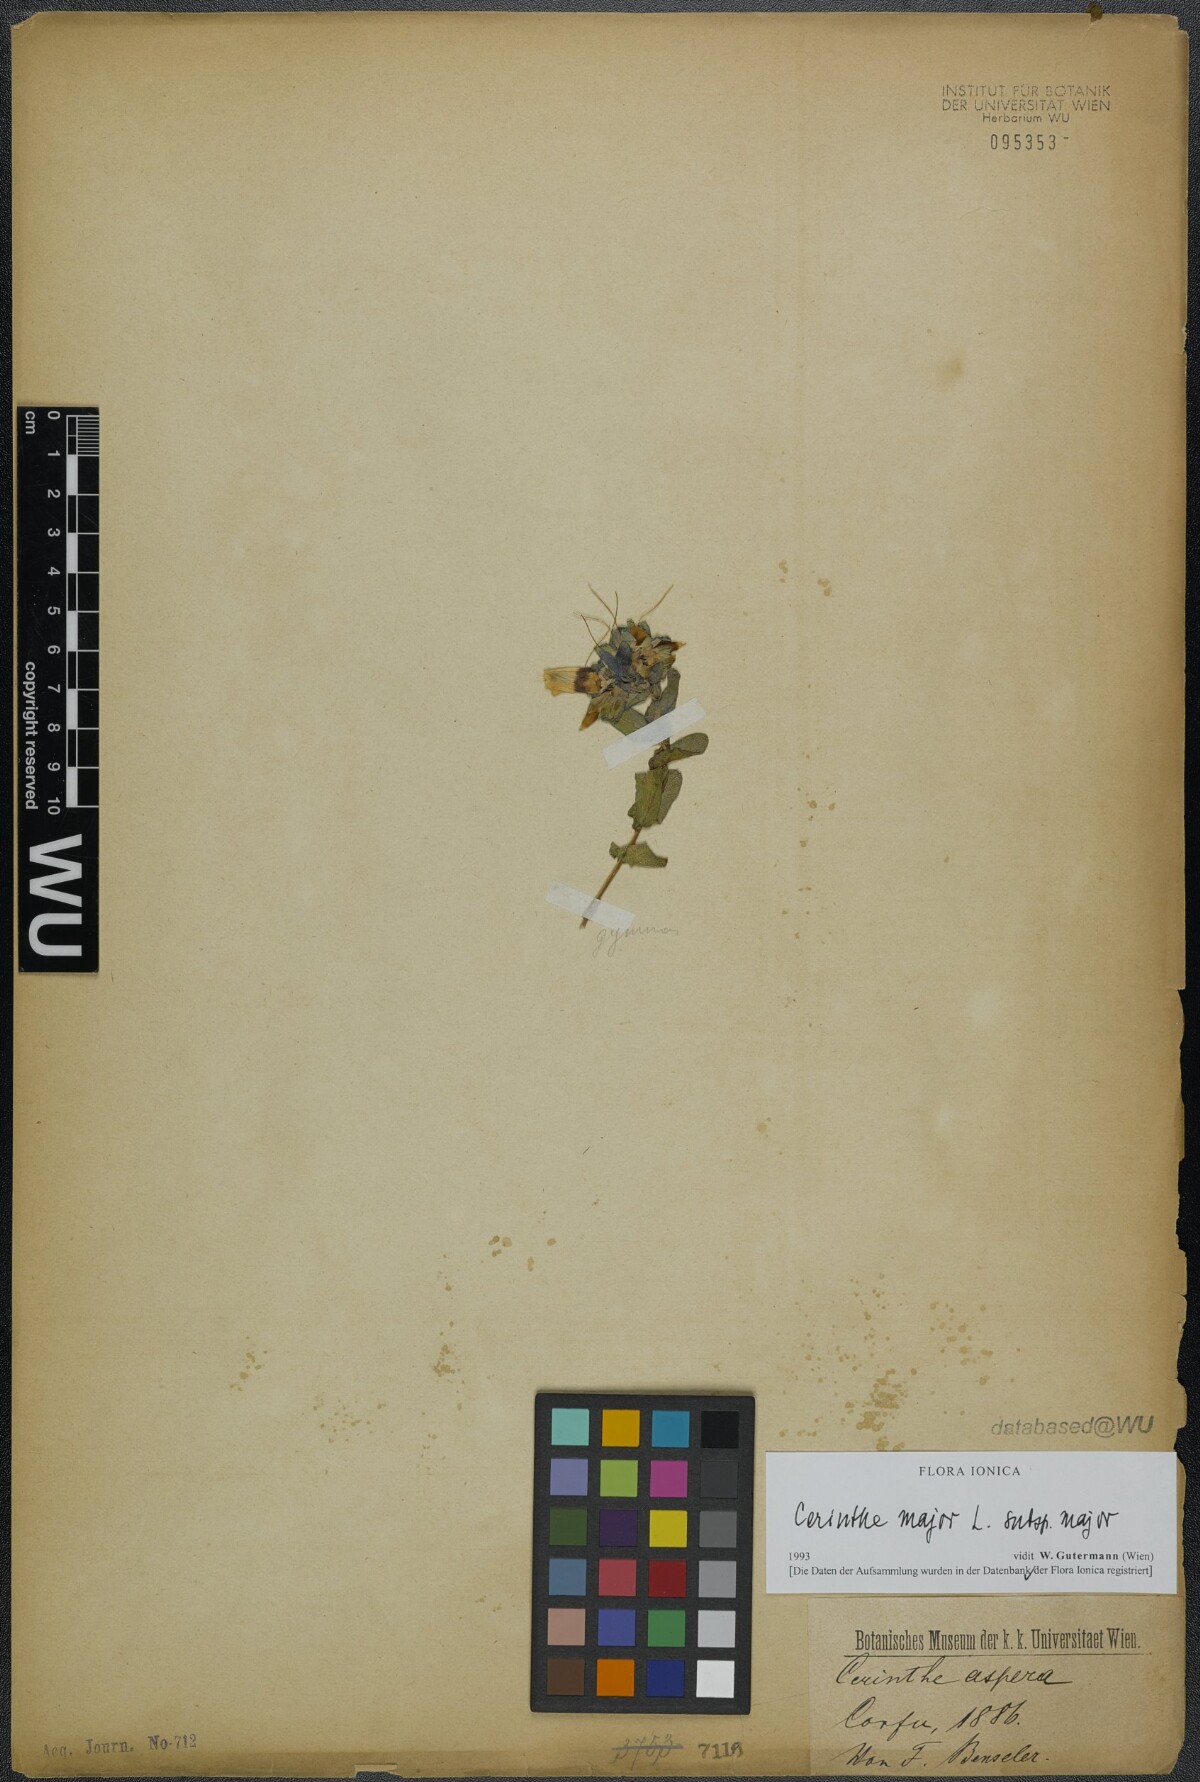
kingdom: Plantae
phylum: Tracheophyta
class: Magnoliopsida
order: Boraginales
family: Boraginaceae
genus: Cerinthe
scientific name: Cerinthe major
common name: Greater honeywort
